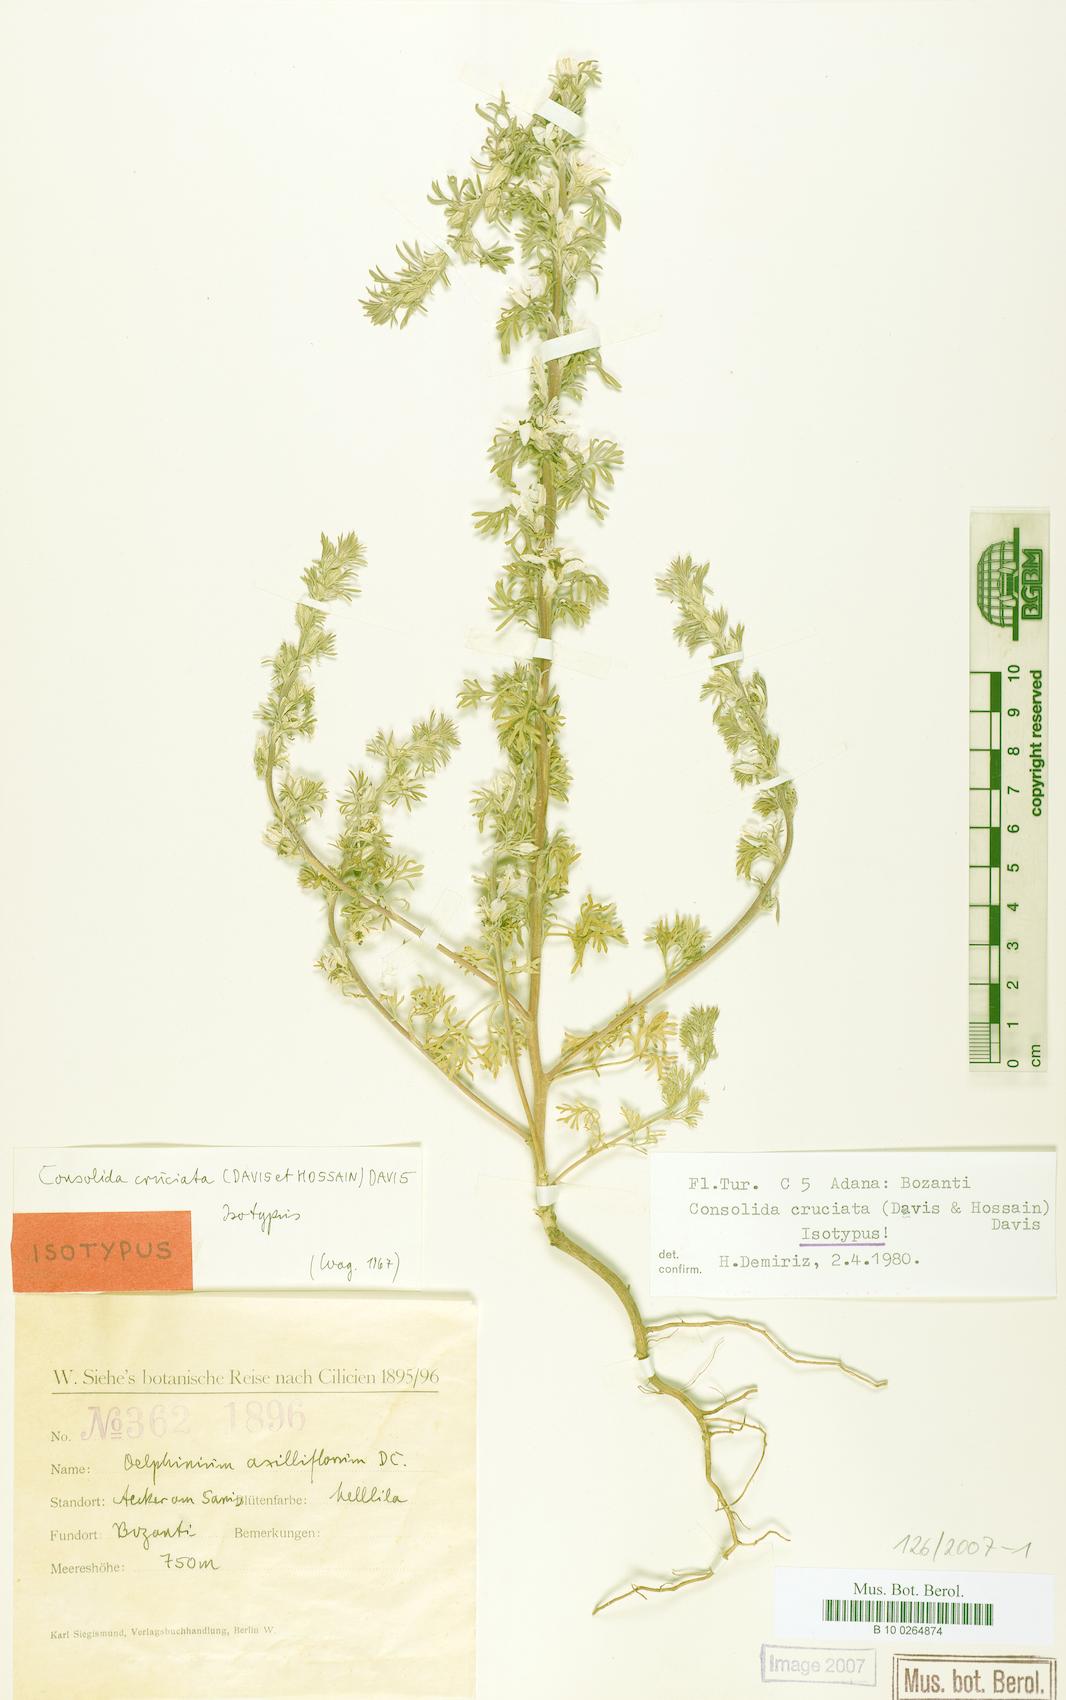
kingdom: Plantae
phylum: Tracheophyta
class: Magnoliopsida
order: Ranunculales
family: Ranunculaceae
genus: Delphinium
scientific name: Delphinium cruciatum
